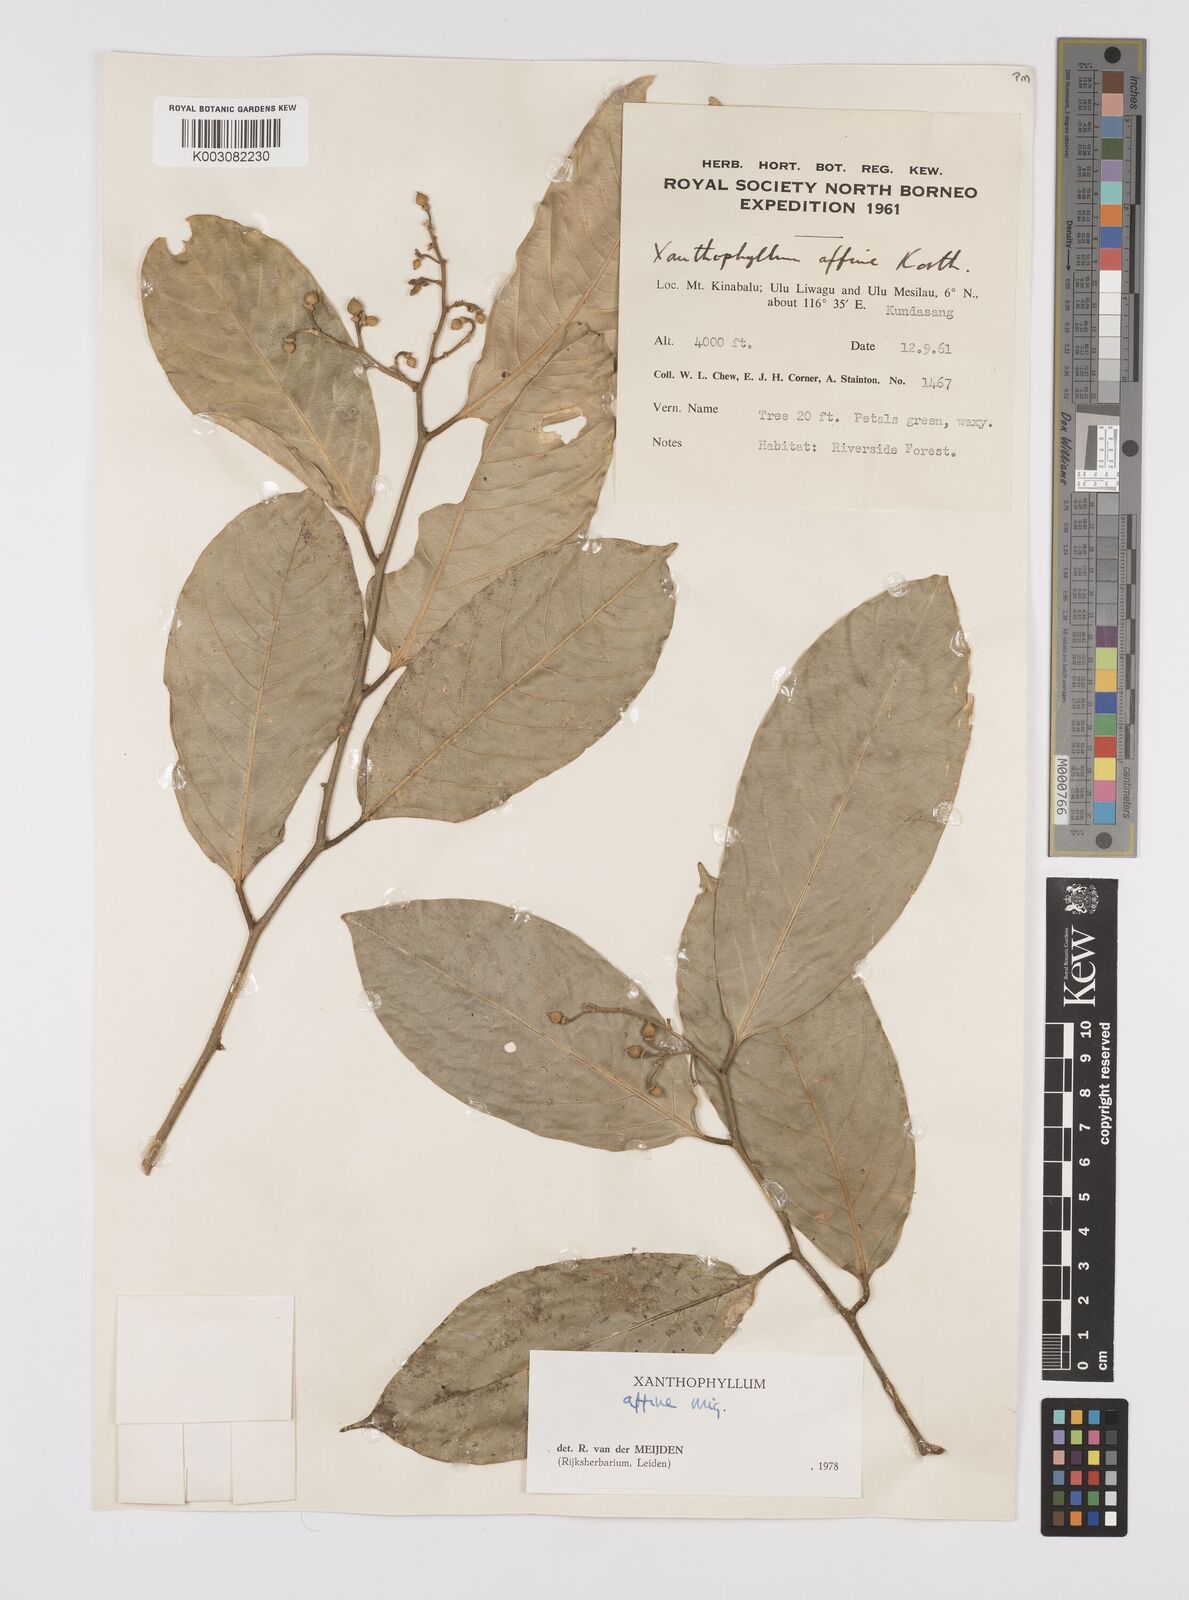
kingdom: Plantae
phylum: Tracheophyta
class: Magnoliopsida
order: Fabales
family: Polygalaceae
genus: Xanthophyllum
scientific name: Xanthophyllum flavescens
